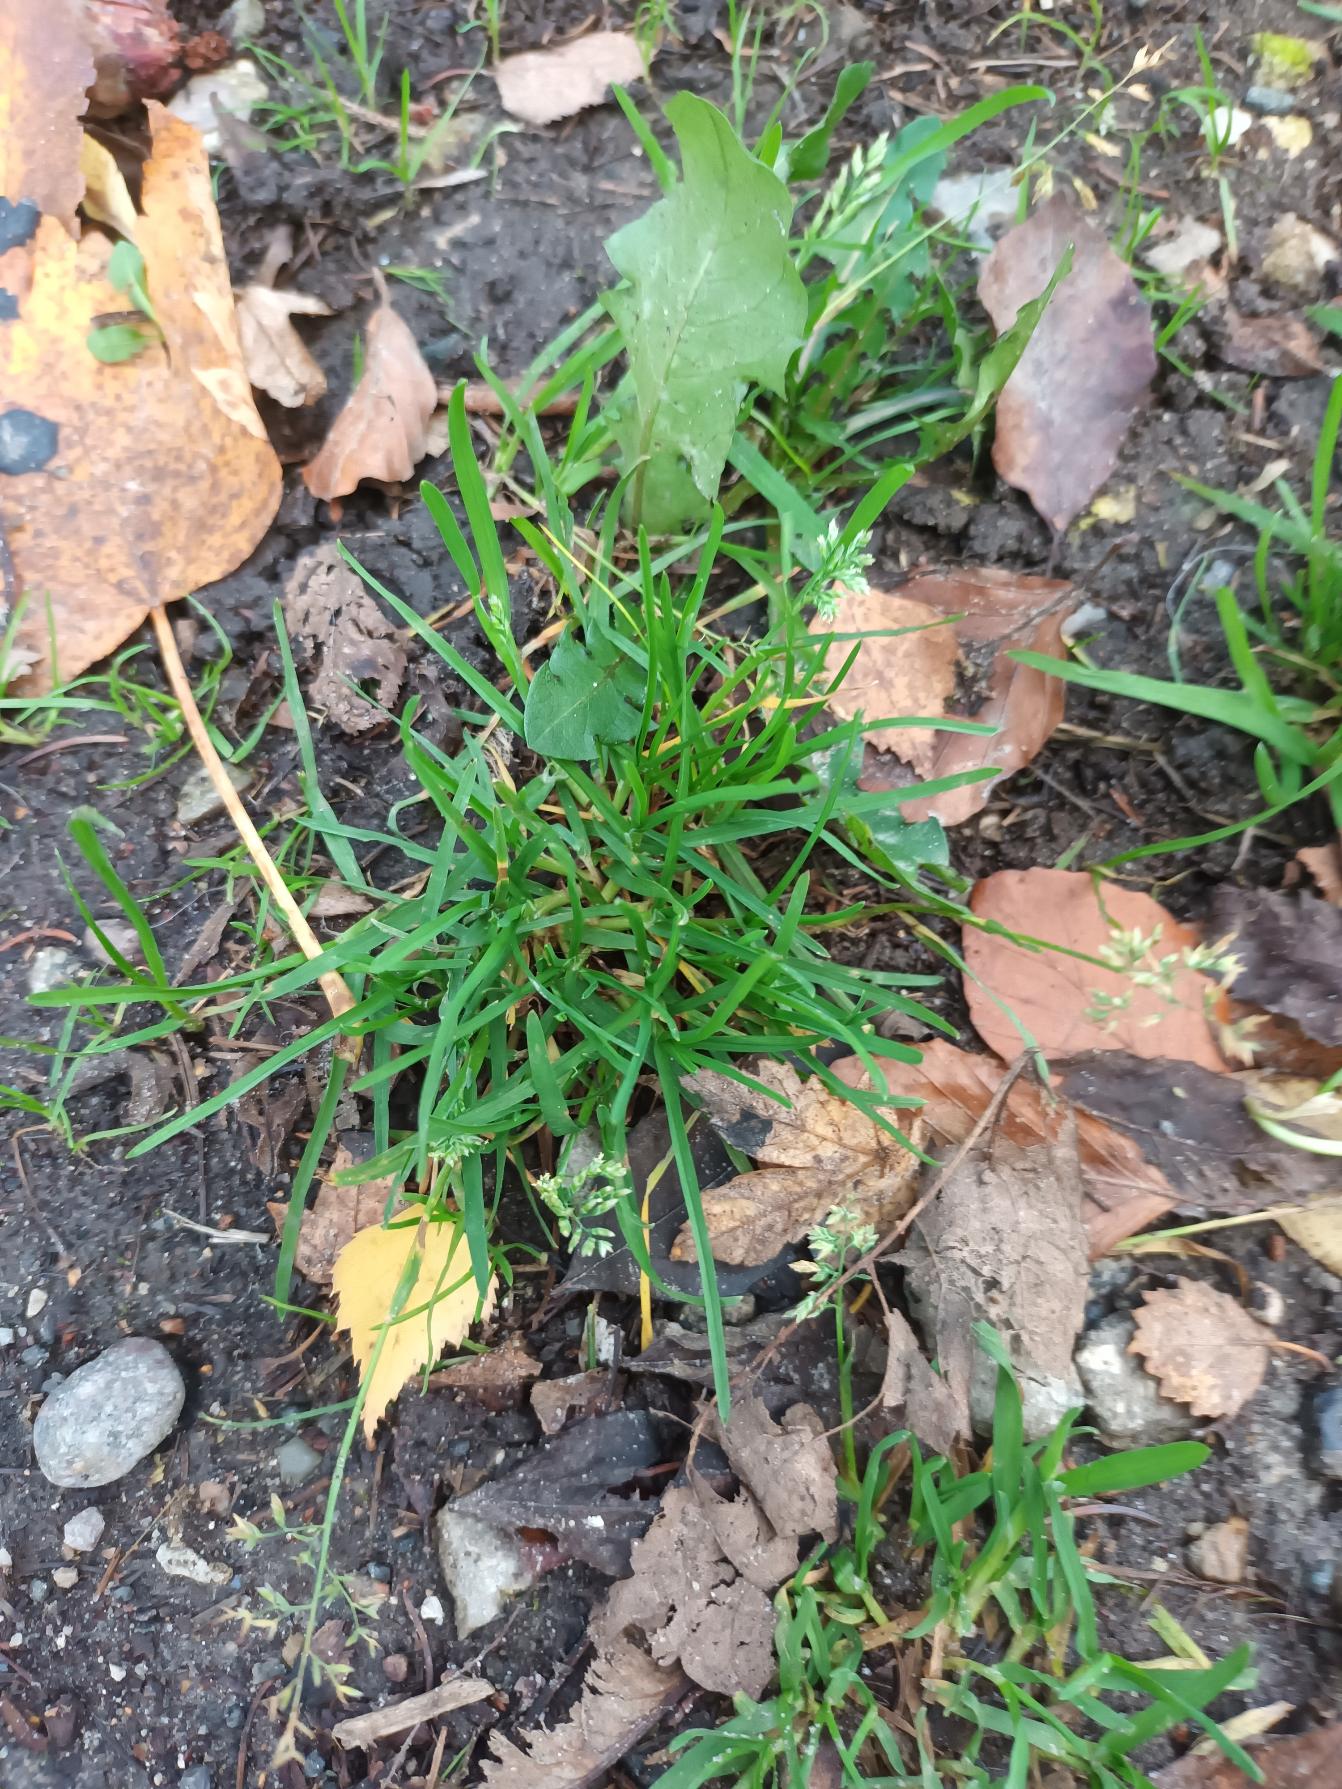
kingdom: Plantae
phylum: Tracheophyta
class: Liliopsida
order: Poales
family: Poaceae
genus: Poa
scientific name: Poa annua
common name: Enårig rapgræs
